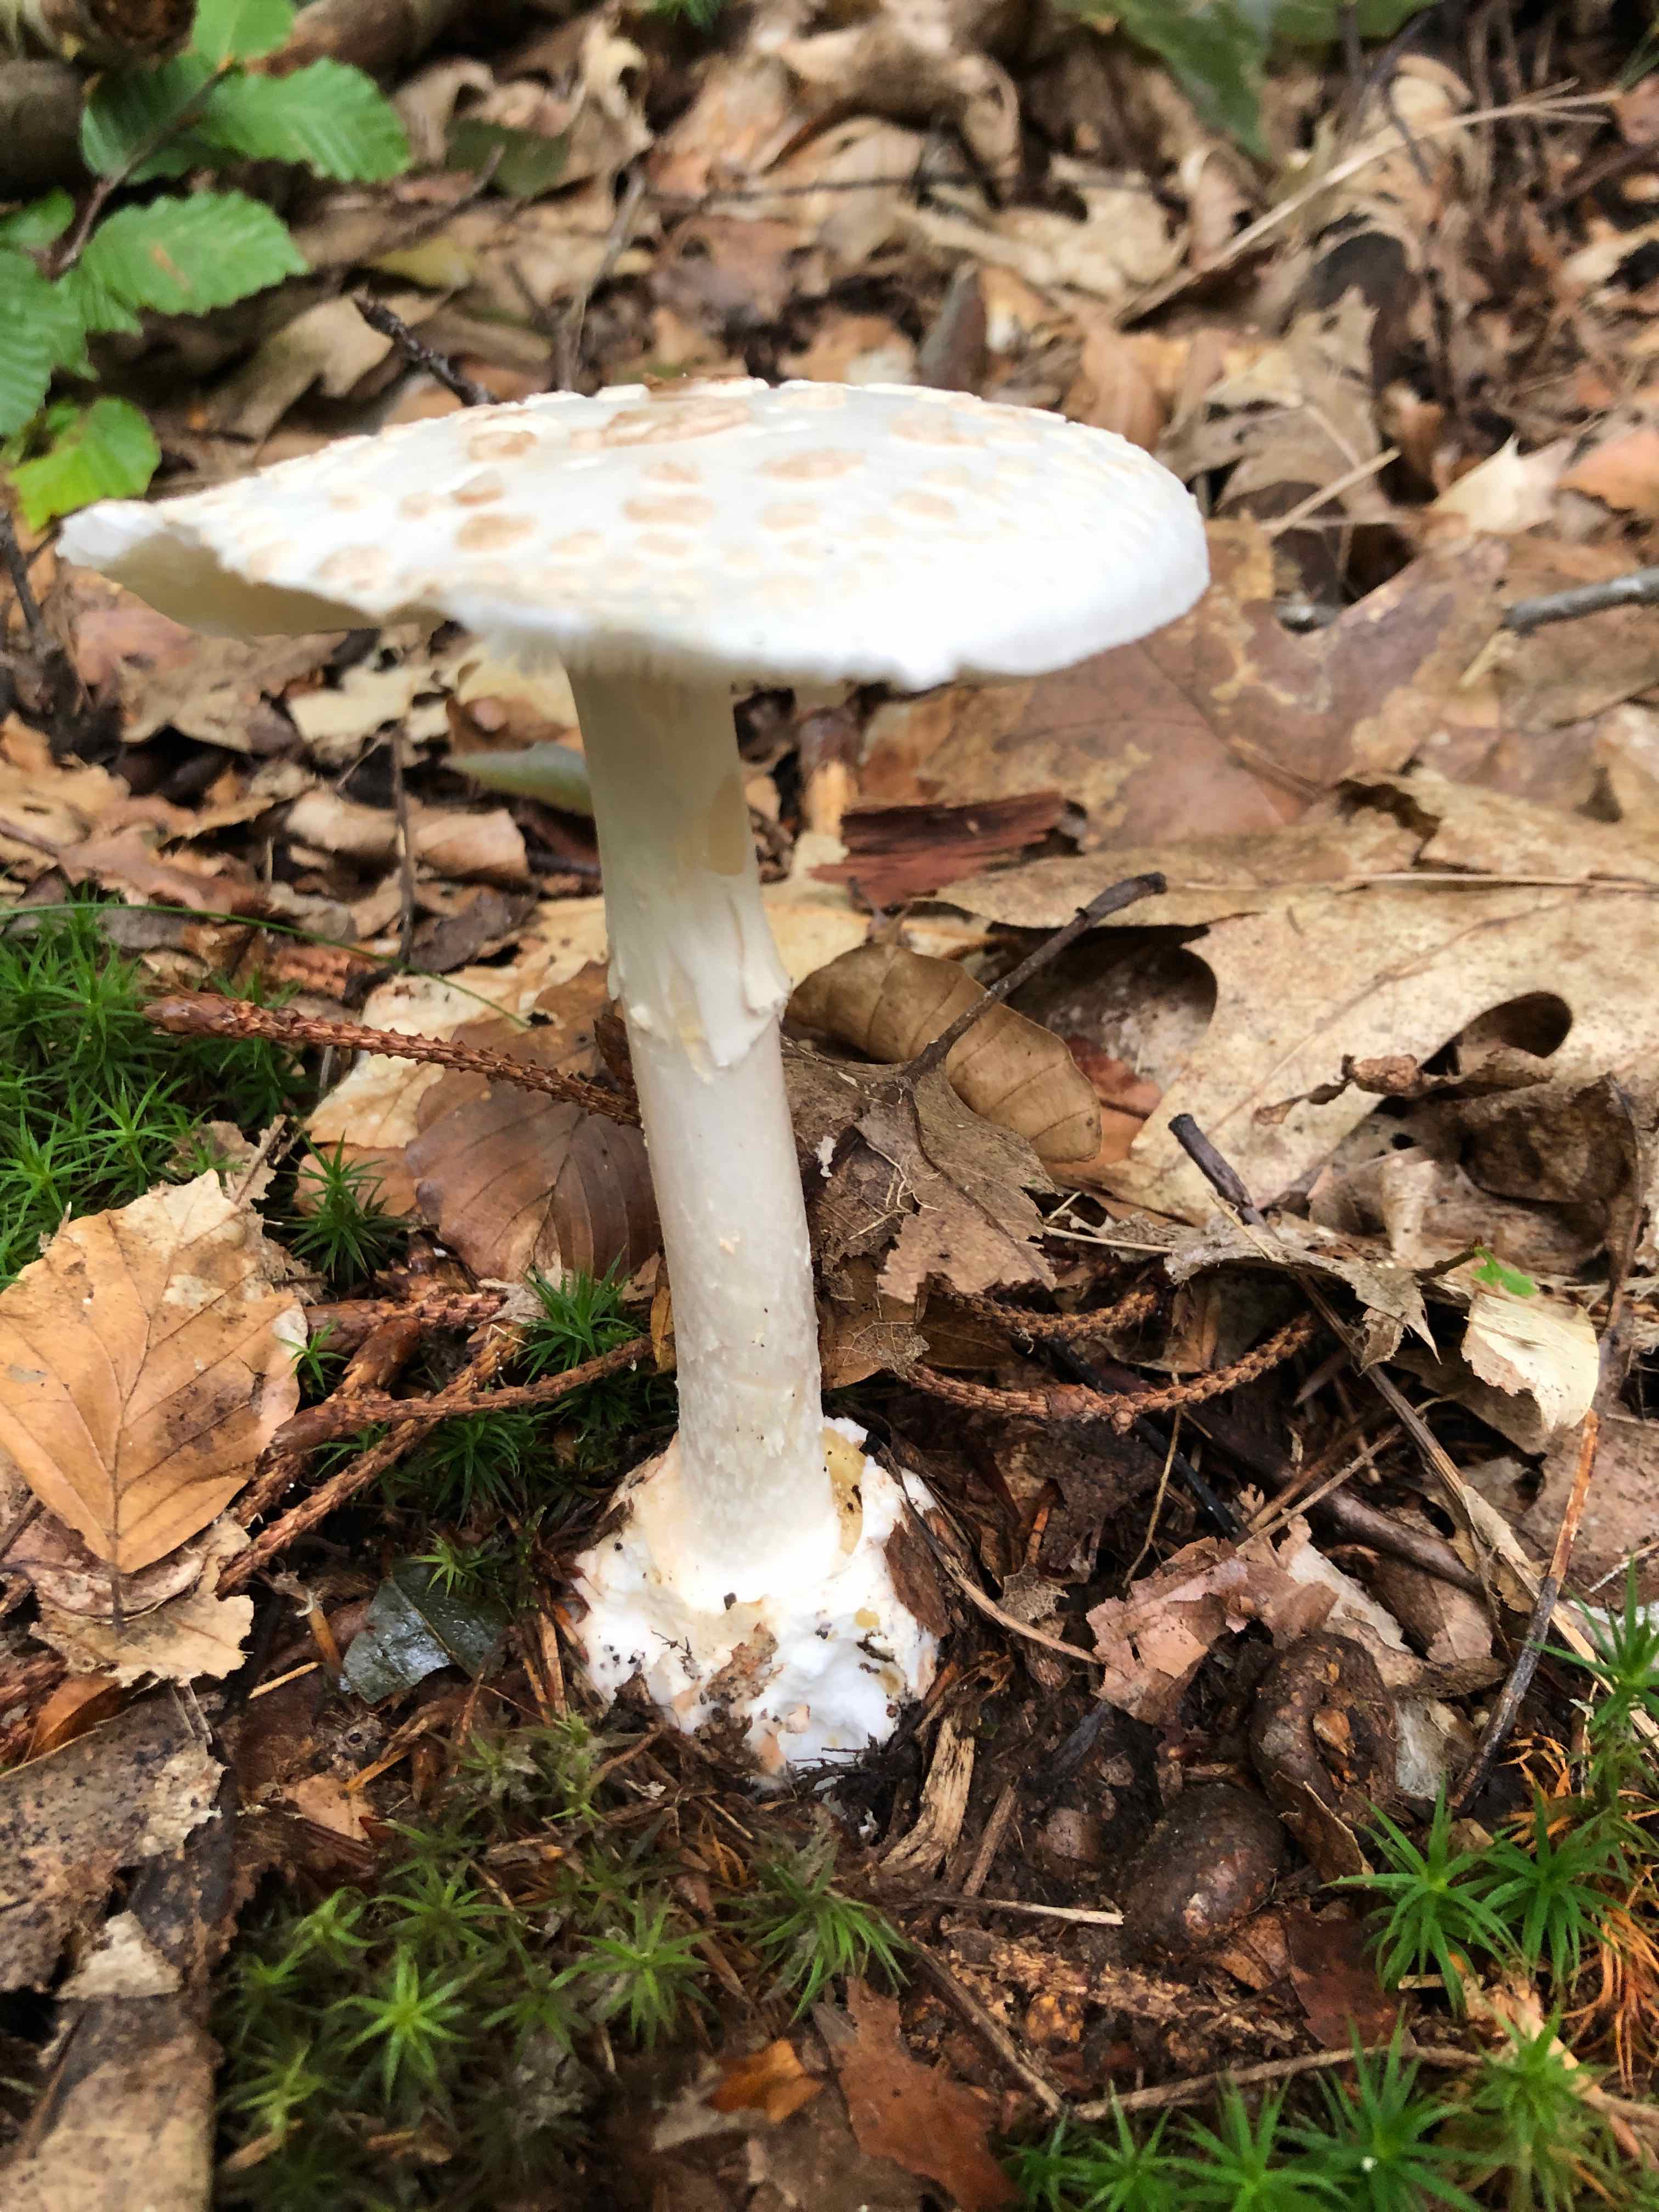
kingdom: Fungi
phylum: Basidiomycota
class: Agaricomycetes
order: Agaricales
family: Amanitaceae
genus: Amanita
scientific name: Amanita citrina
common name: kugleknoldet fluesvamp
